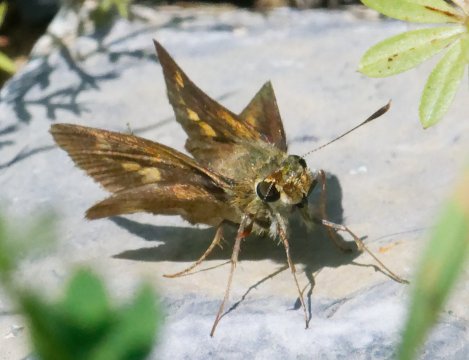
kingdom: Animalia
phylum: Arthropoda
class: Insecta
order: Lepidoptera
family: Hesperiidae
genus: Polites
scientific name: Polites egeremet
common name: Northern Broken-Dash
